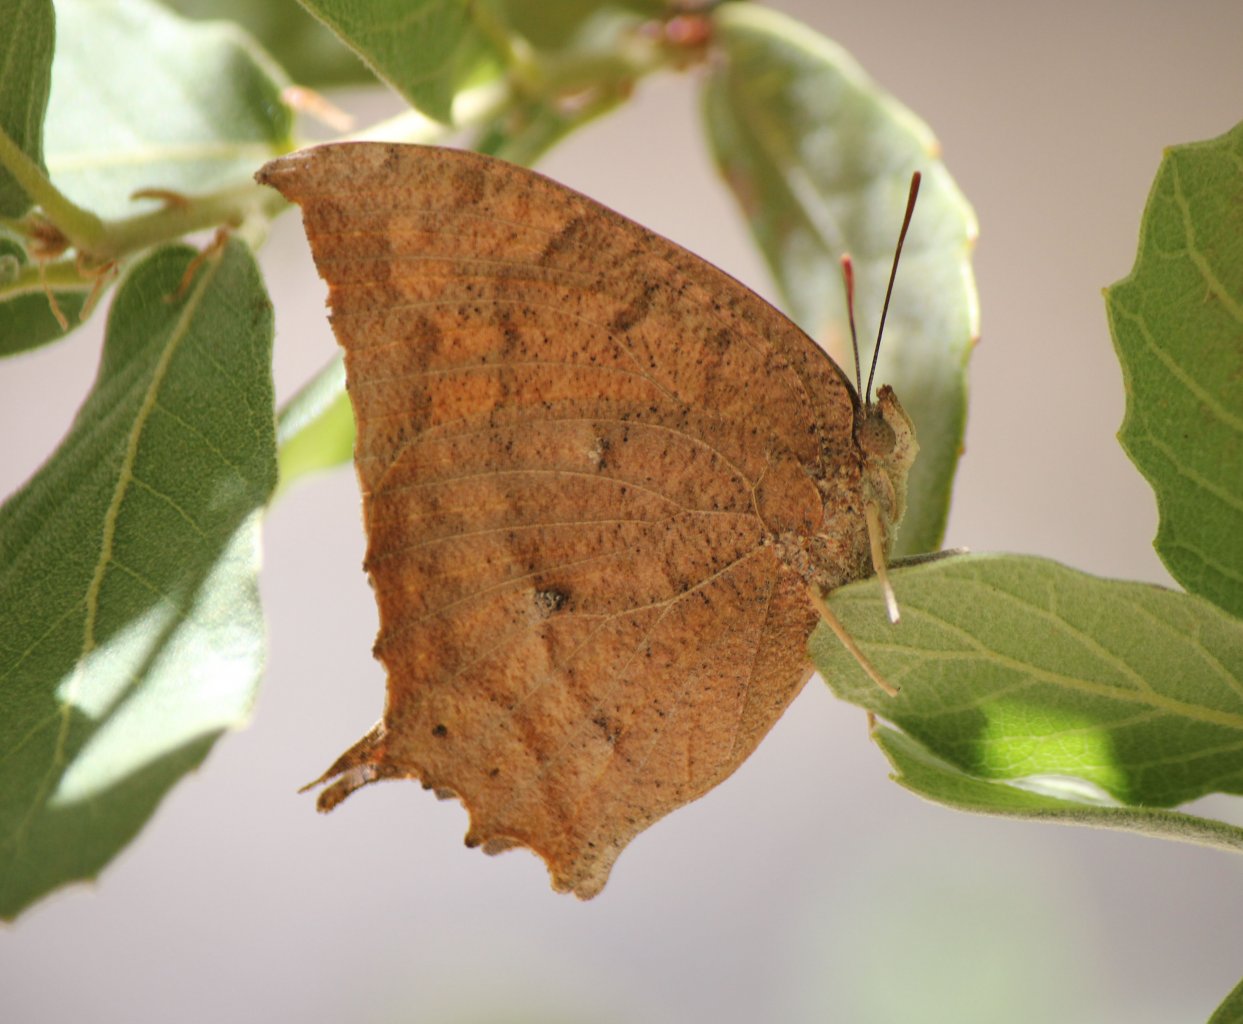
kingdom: Animalia
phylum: Arthropoda
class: Insecta
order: Lepidoptera
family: Nymphalidae
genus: Anaea
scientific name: Anaea aidea
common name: Tropical Leafwing
